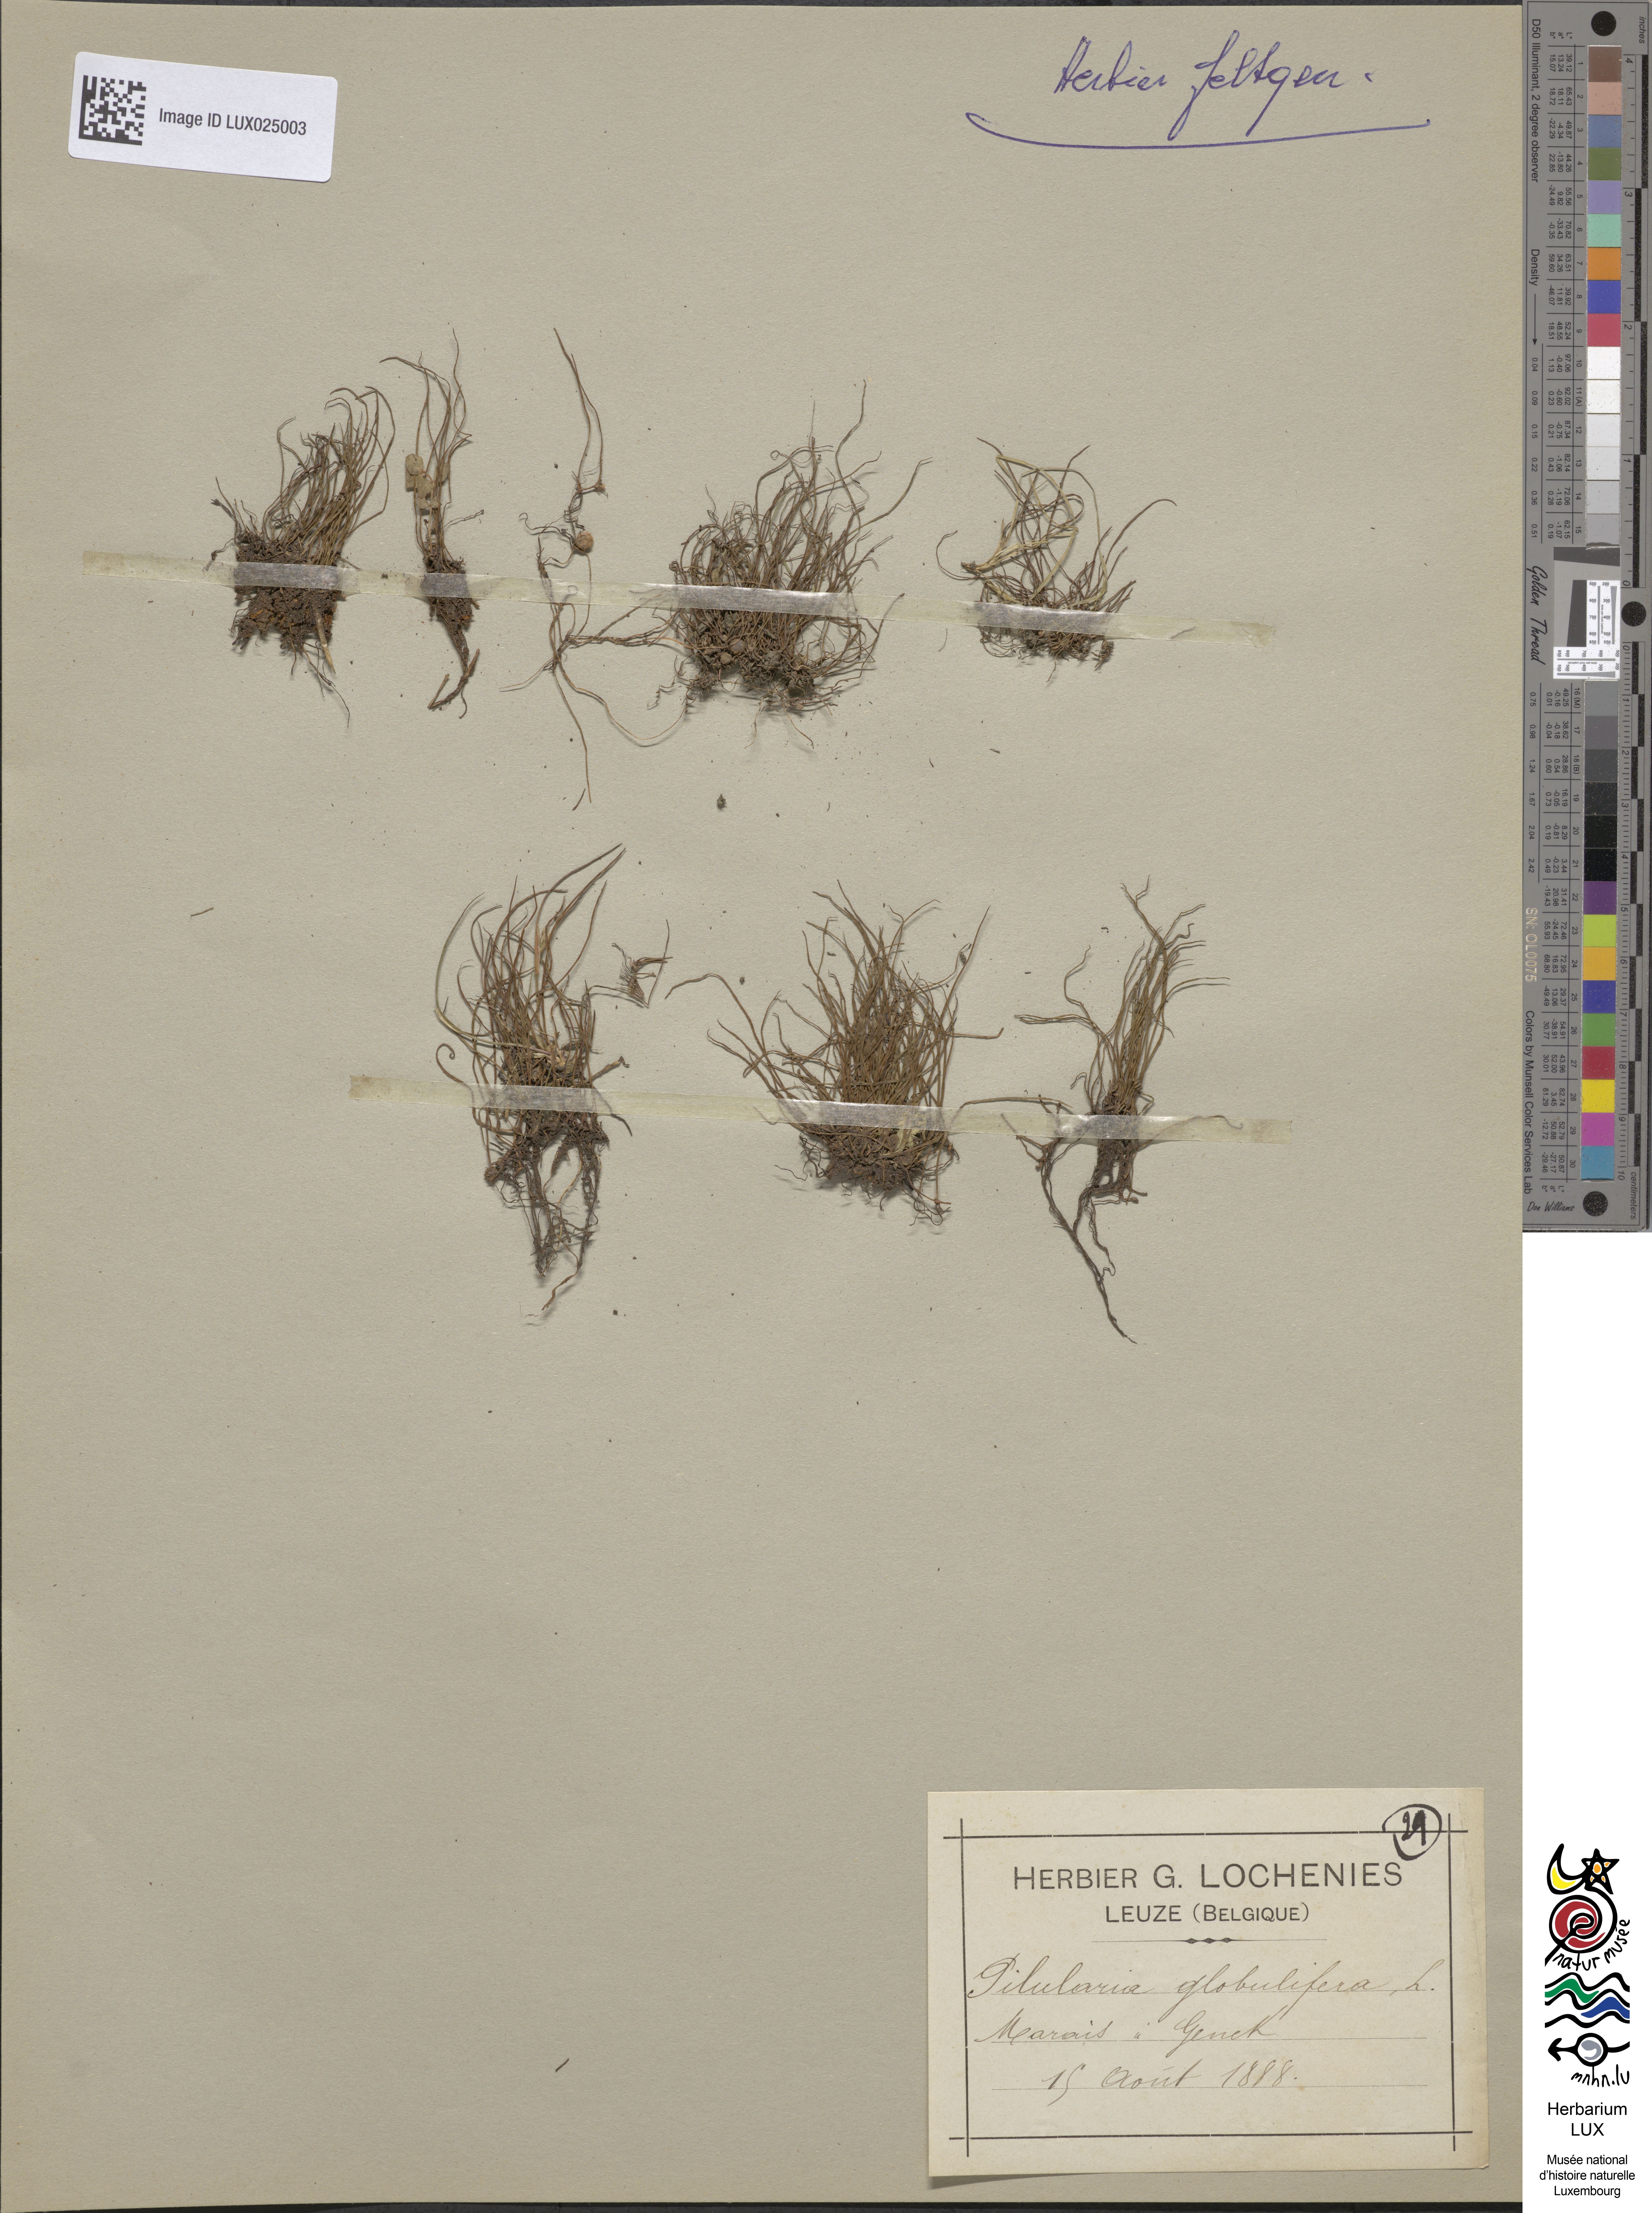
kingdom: Plantae
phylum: Tracheophyta
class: Polypodiopsida
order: Salviniales
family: Marsileaceae
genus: Pilularia
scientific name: Pilularia globulifera
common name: Pillwort
